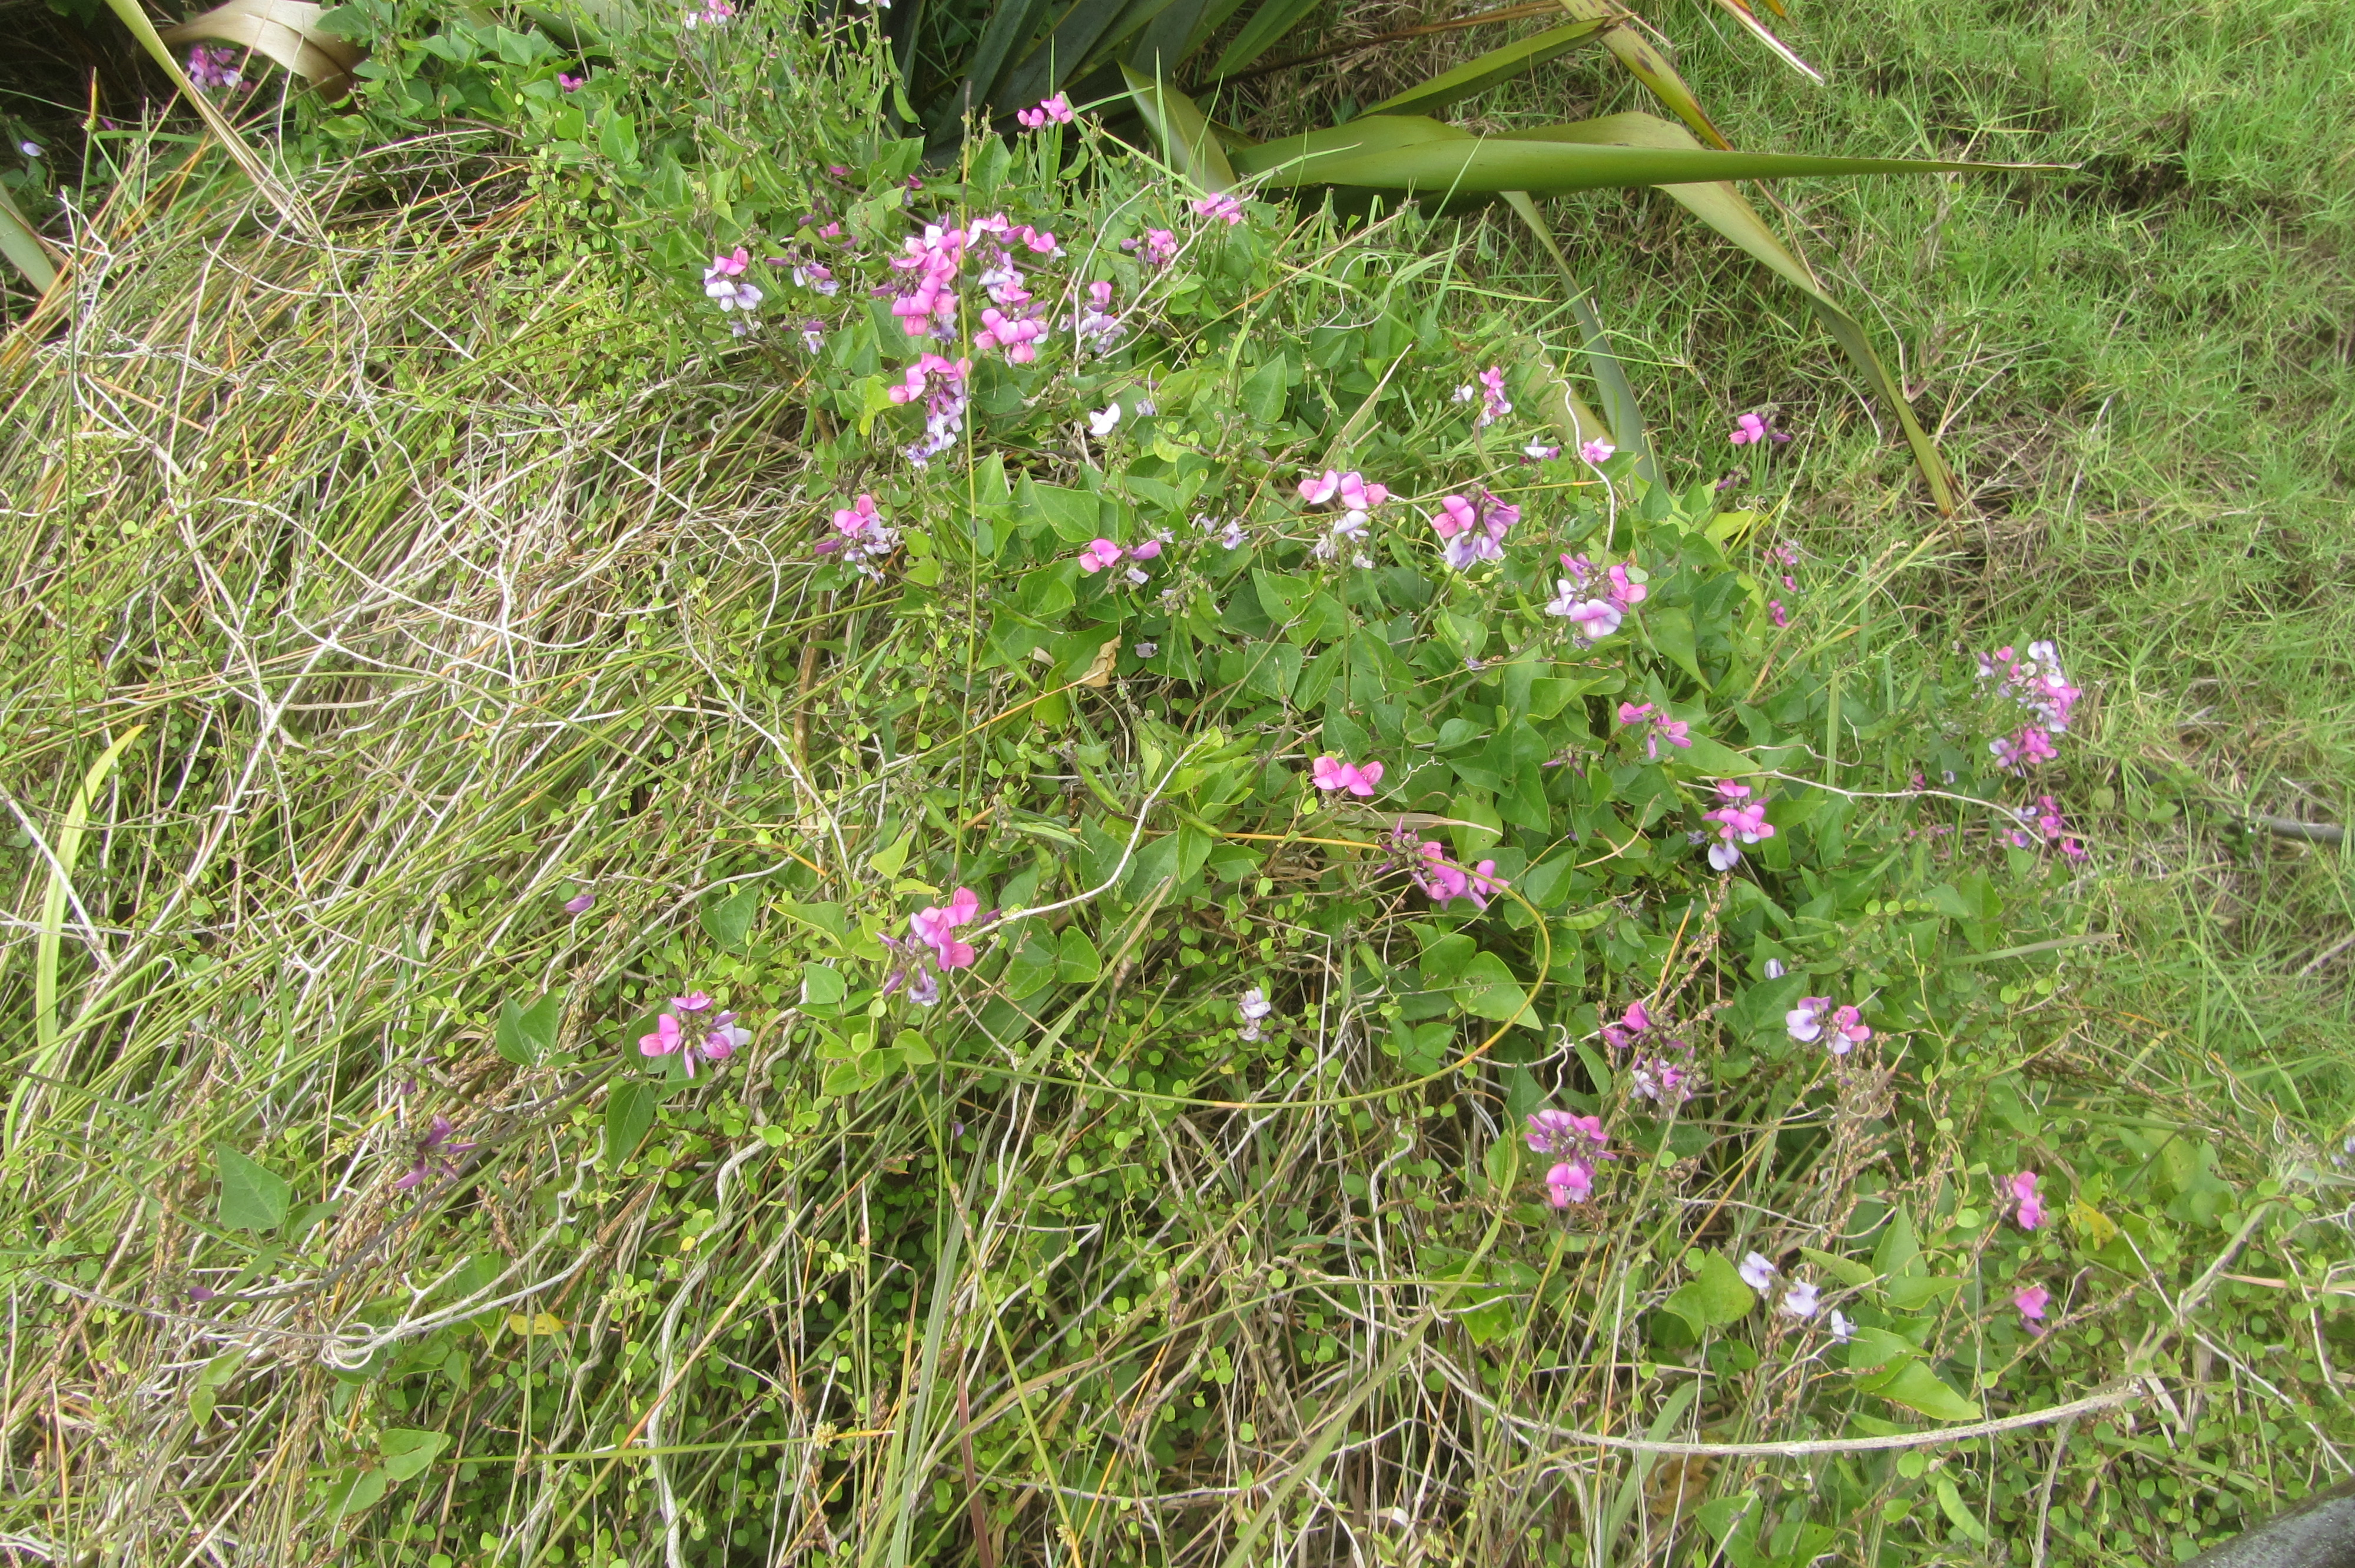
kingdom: Plantae
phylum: Tracheophyta
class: Magnoliopsida
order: Fabales
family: Fabaceae
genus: Dipogon
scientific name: Dipogon lignosus
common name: Okie bean
